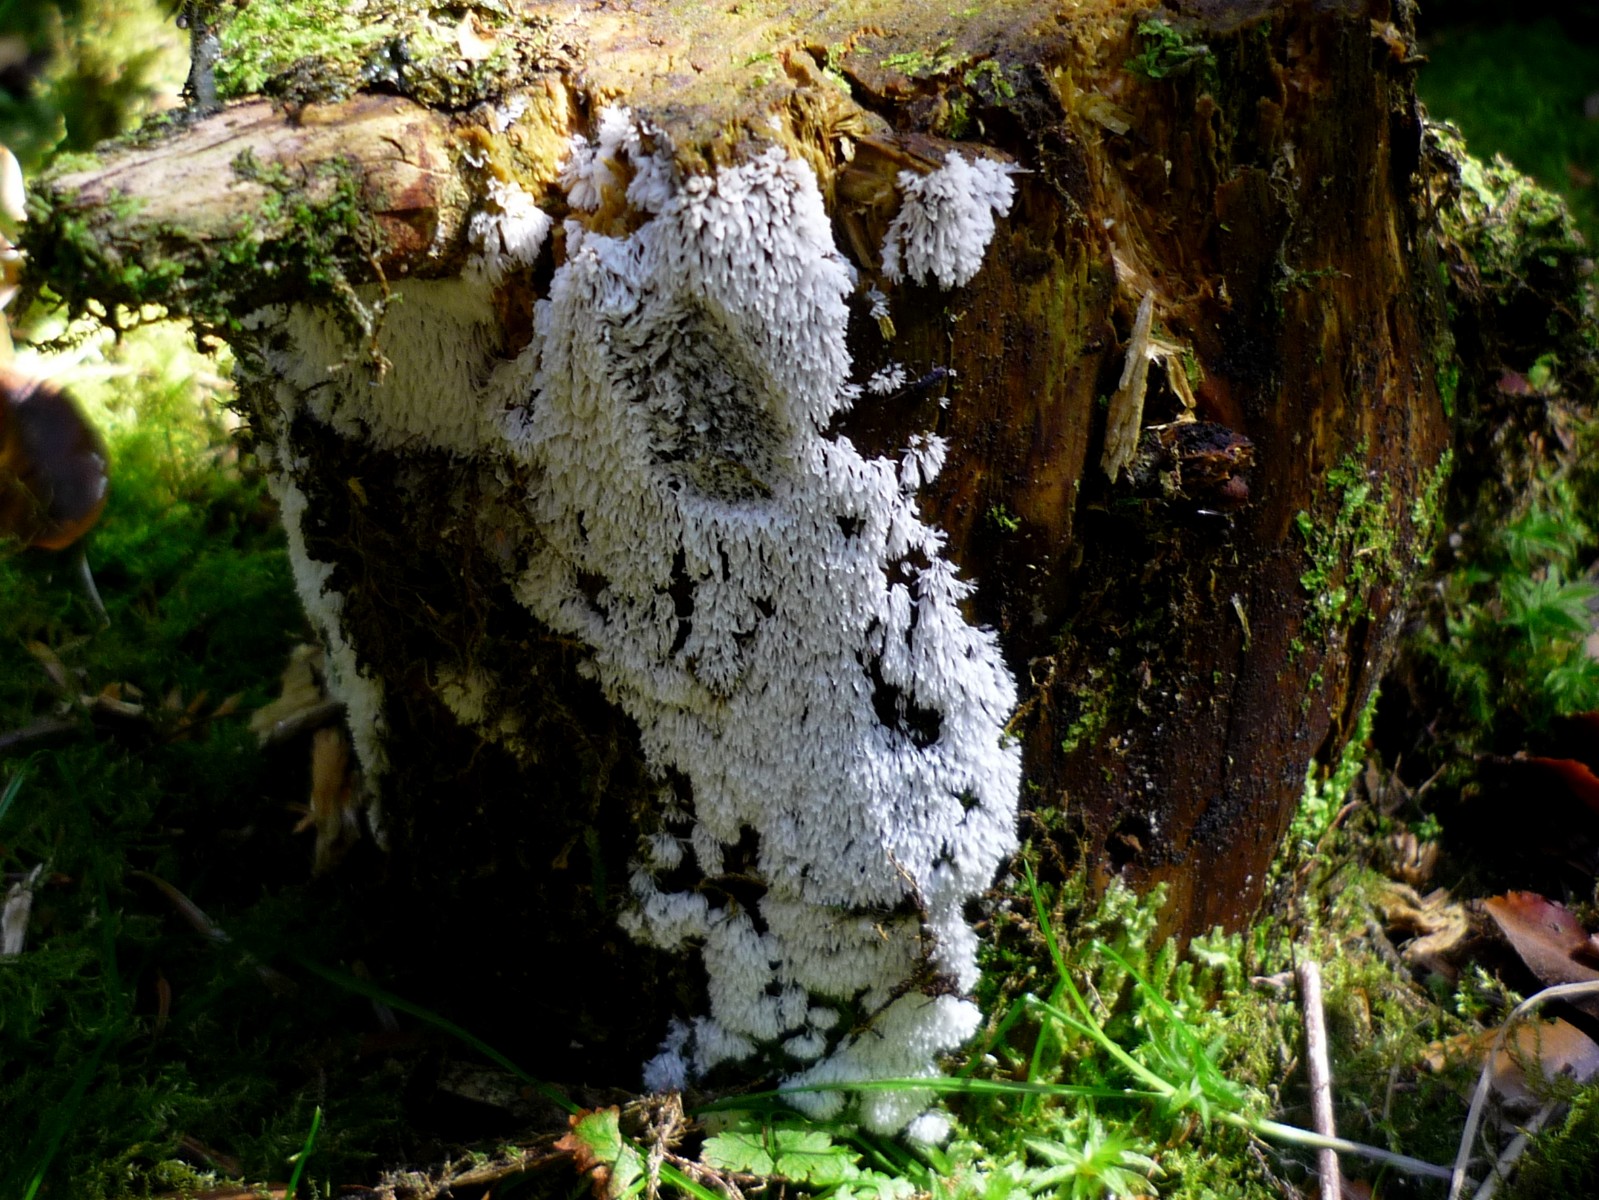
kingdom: Protozoa
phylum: Mycetozoa
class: Protosteliomycetes
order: Ceratiomyxales
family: Ceratiomyxaceae
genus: Ceratiomyxa
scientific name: Ceratiomyxa fruticulosa
